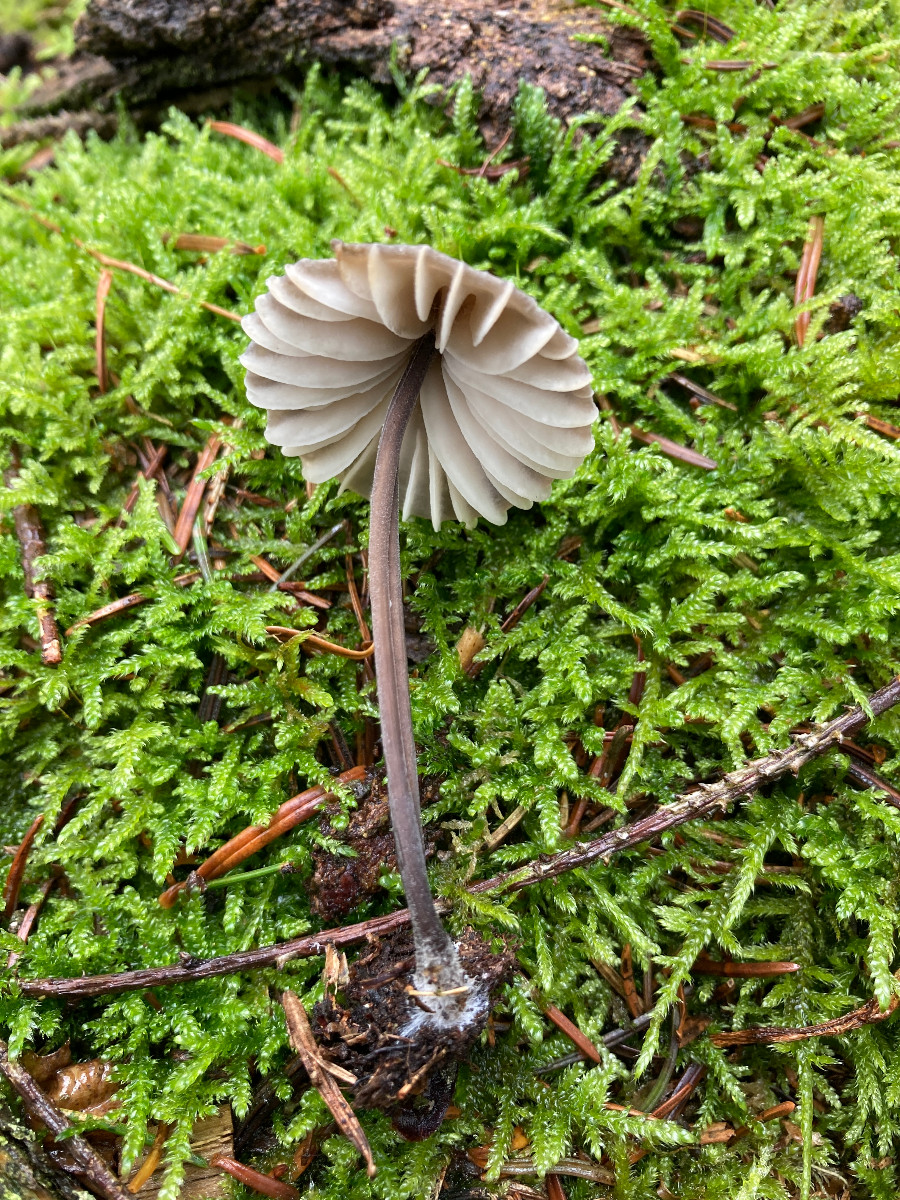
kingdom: Fungi
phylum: Basidiomycota
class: Agaricomycetes
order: Agaricales
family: Mycenaceae
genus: Mycena
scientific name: Mycena galopus
